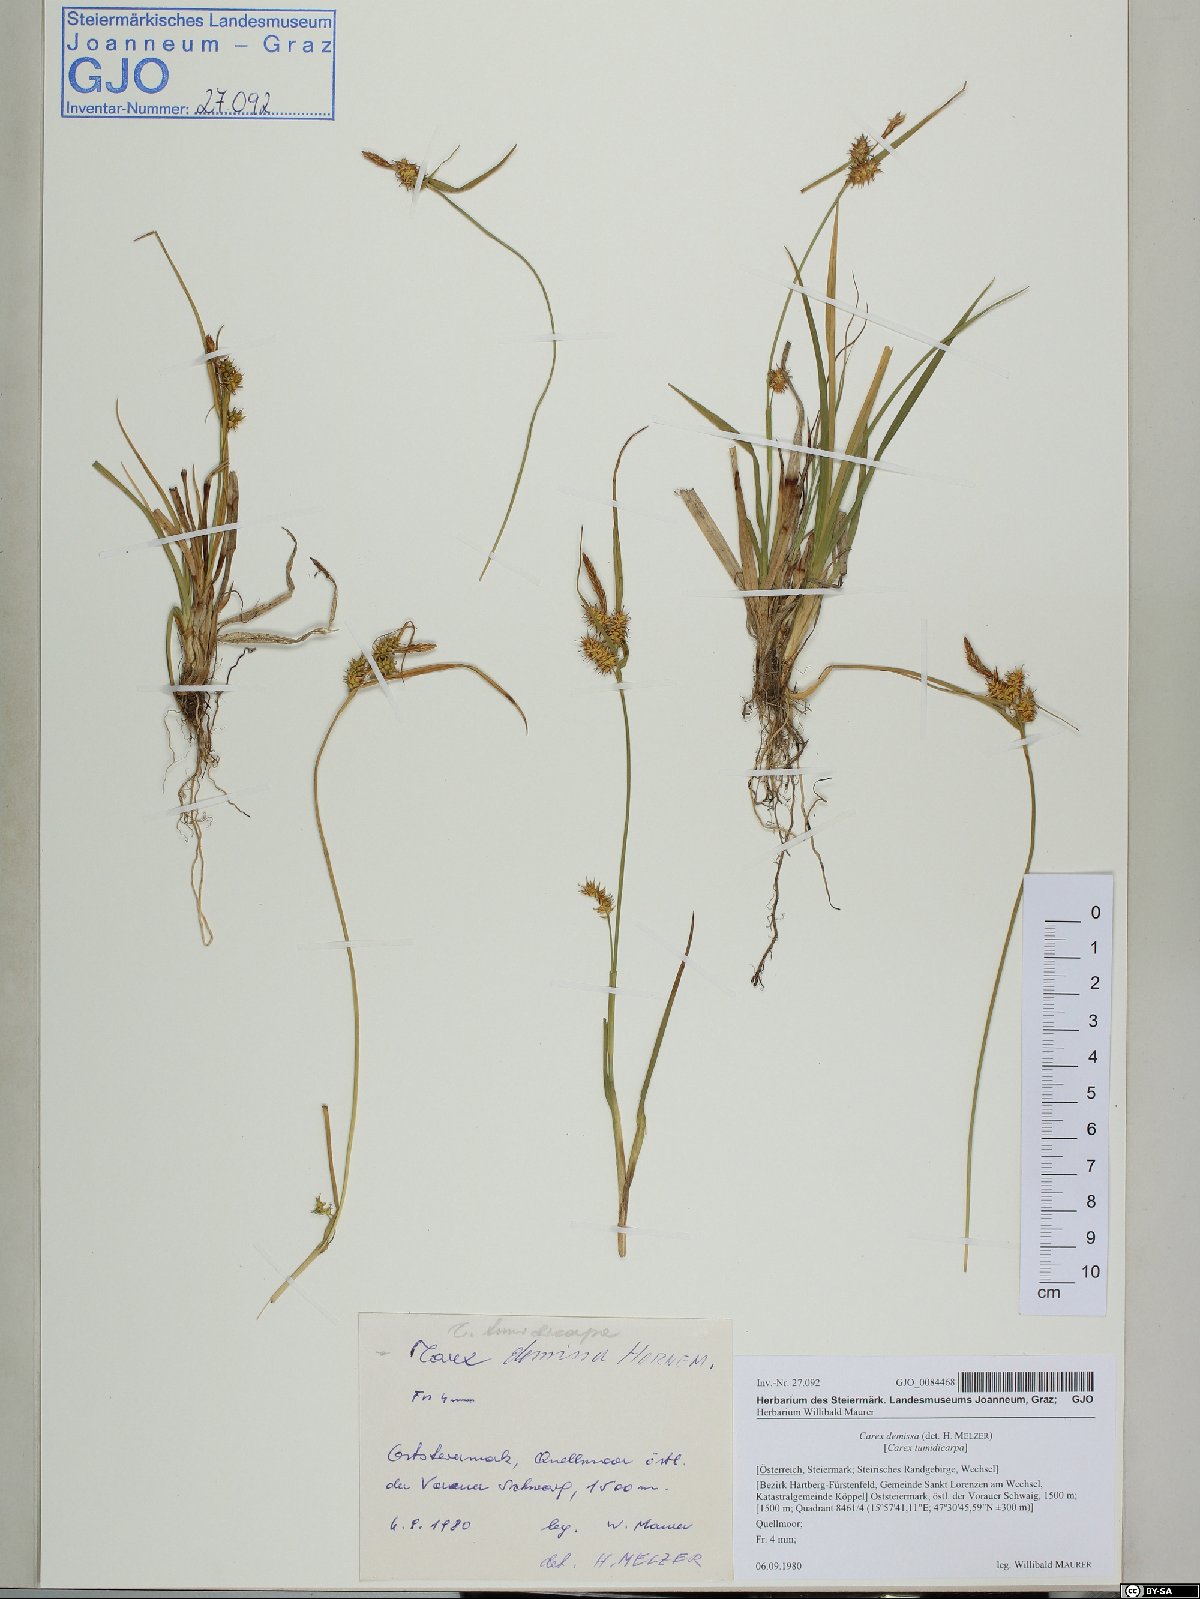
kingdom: Plantae
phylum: Tracheophyta
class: Liliopsida
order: Poales
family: Cyperaceae
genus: Carex
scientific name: Carex demissa
